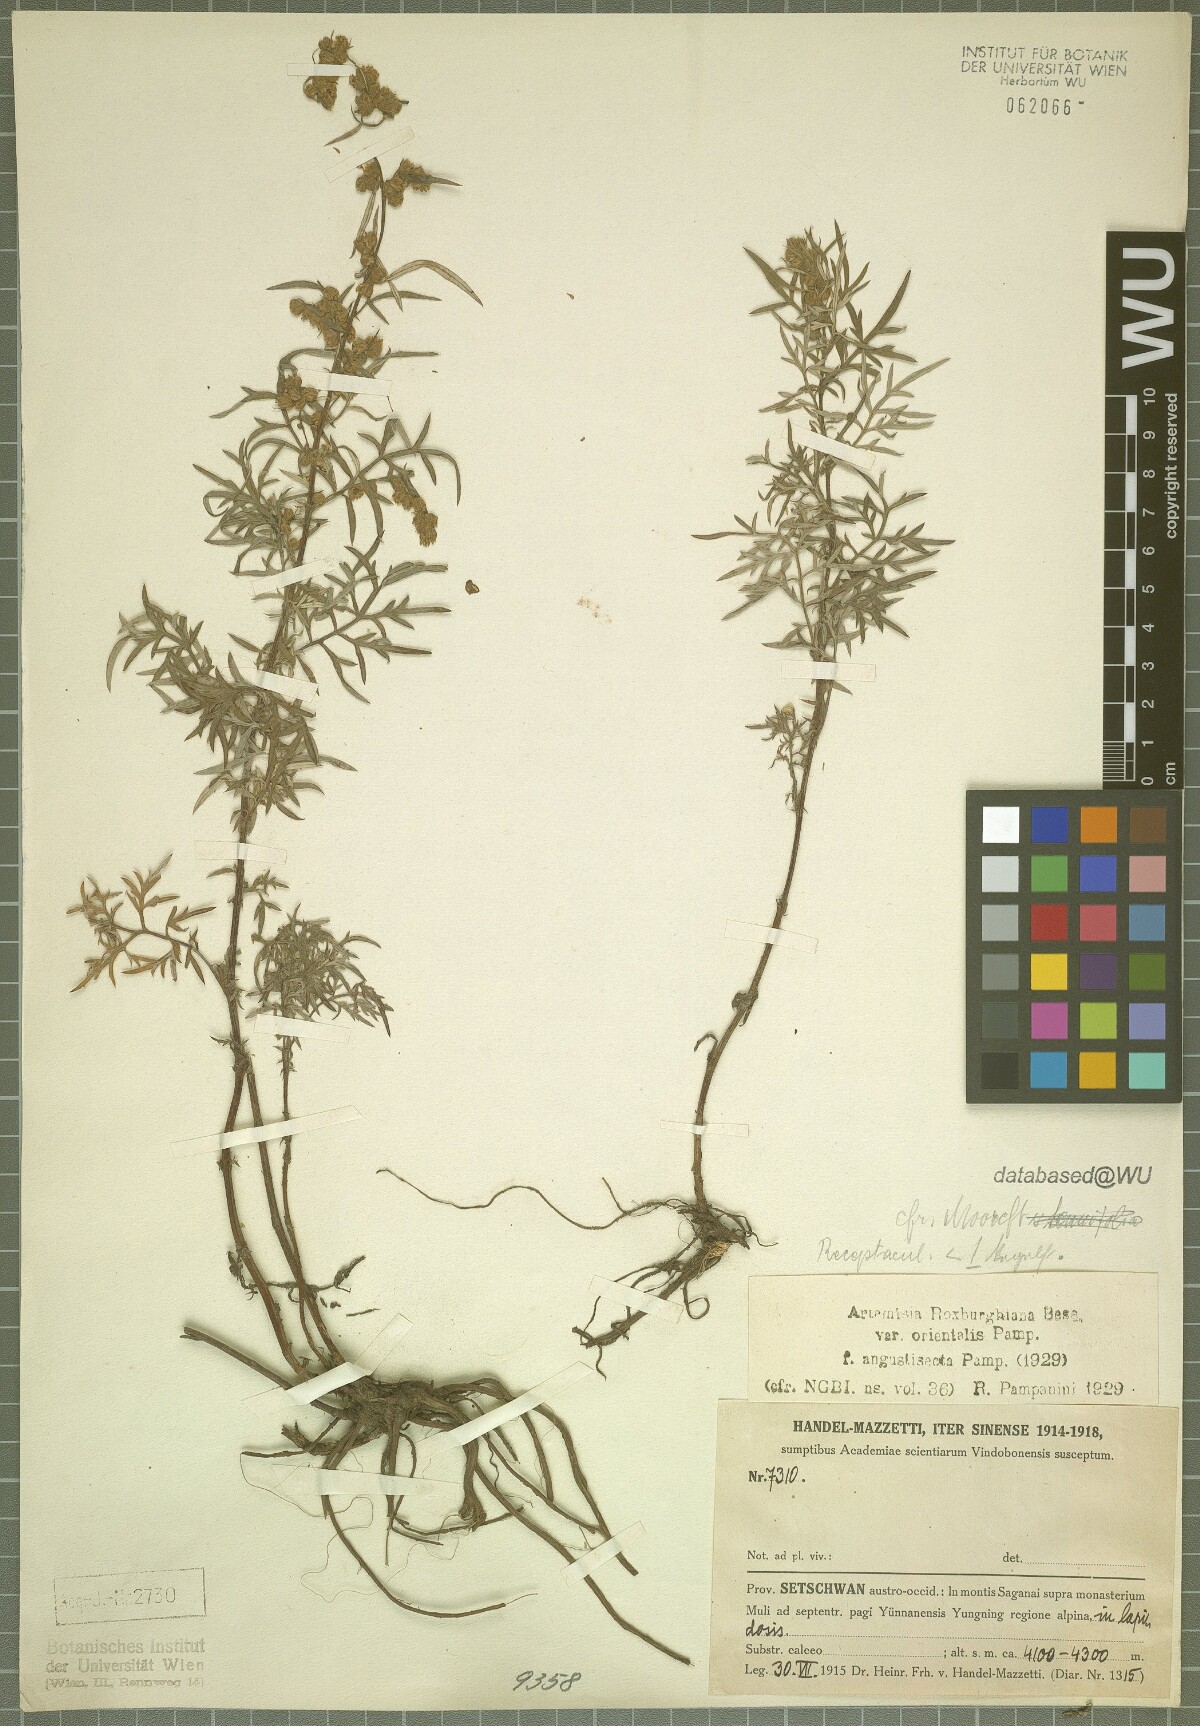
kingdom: Plantae
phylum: Tracheophyta
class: Magnoliopsida
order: Asterales
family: Asteraceae
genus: Artemisia
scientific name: Artemisia roxburghiana
